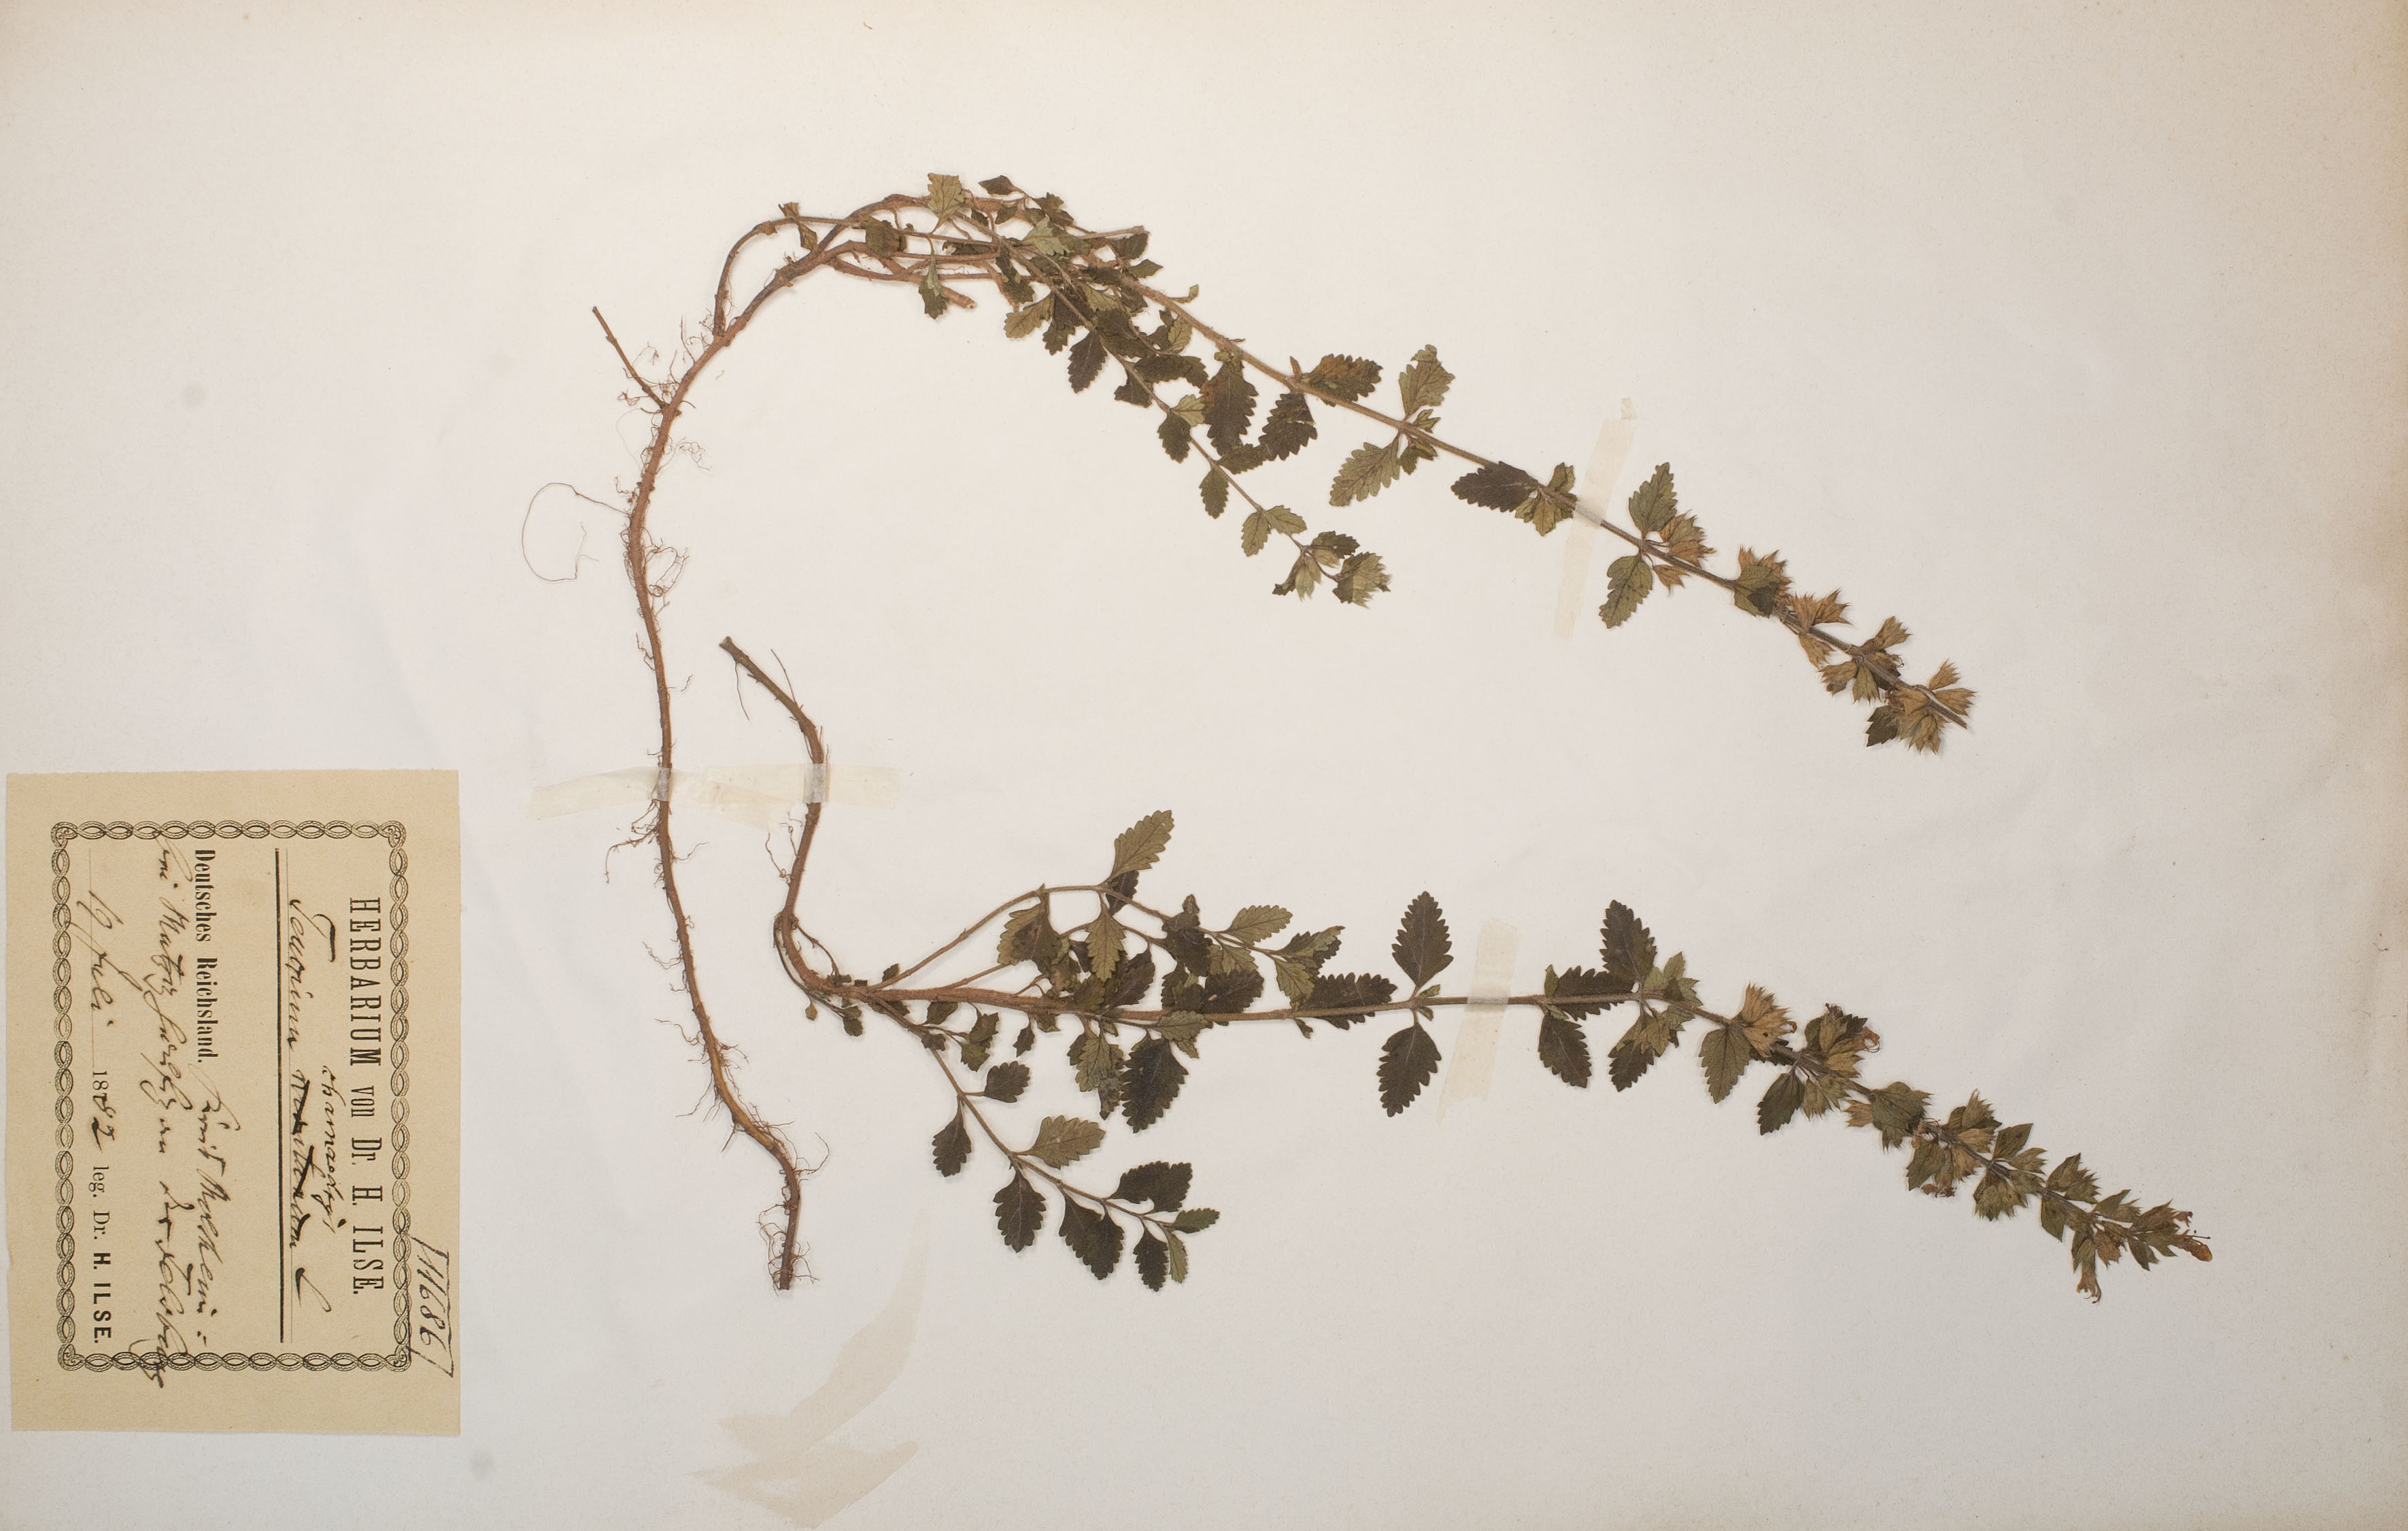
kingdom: Plantae
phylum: Tracheophyta
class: Magnoliopsida
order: Lamiales
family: Lamiaceae
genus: Teucrium
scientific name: Teucrium chamaedrys
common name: Wall germander
